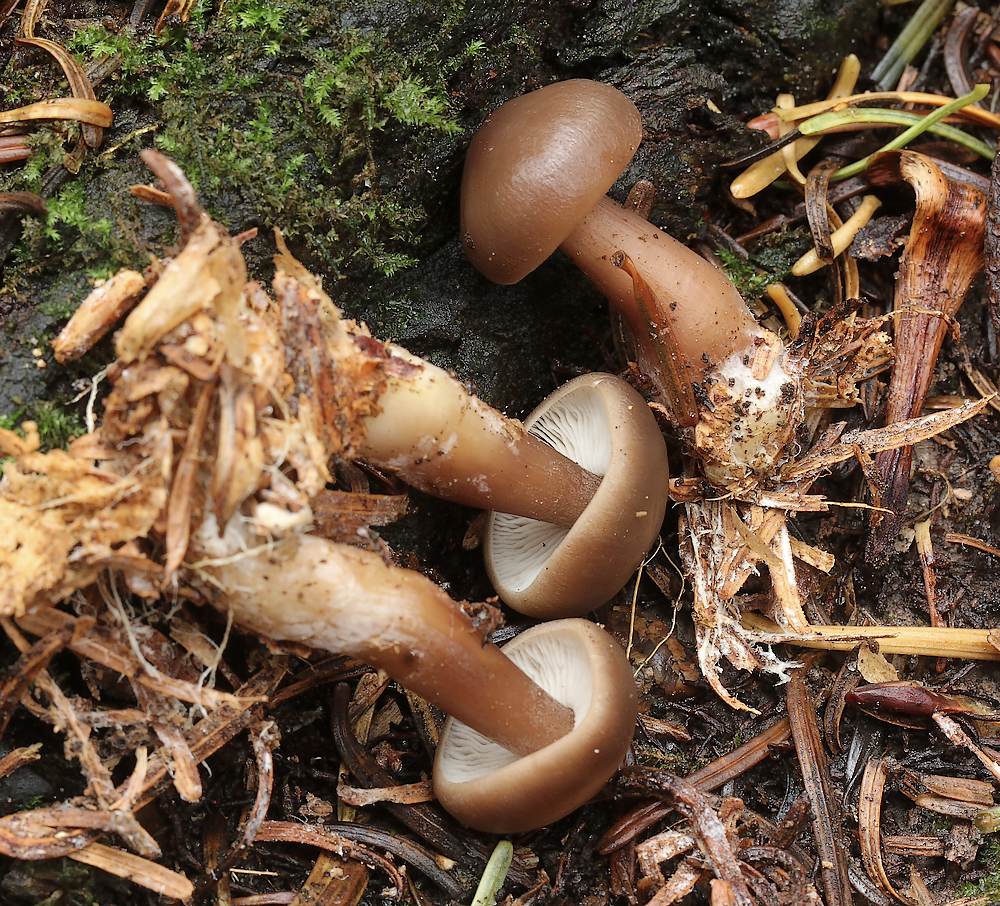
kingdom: Fungi
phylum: Basidiomycota
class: Agaricomycetes
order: Agaricales
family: Omphalotaceae
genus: Rhodocollybia
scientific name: Rhodocollybia asema
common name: horngrå fladhat
